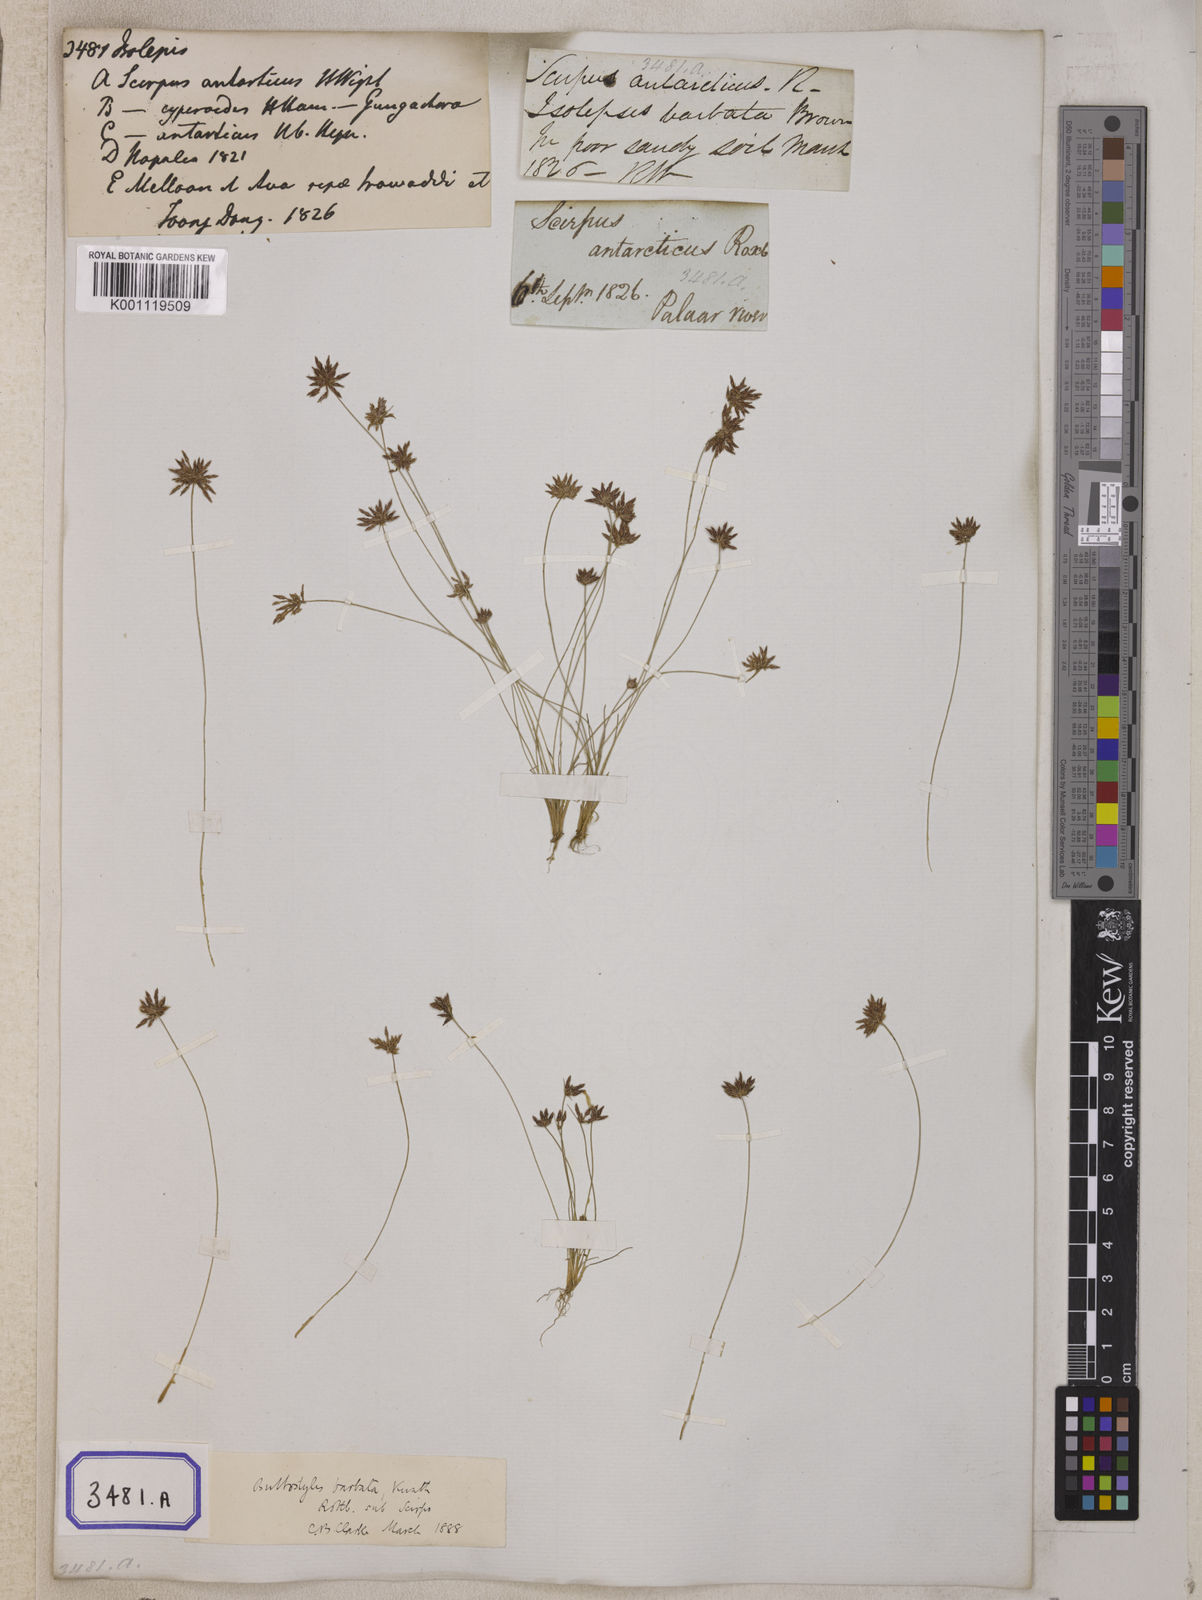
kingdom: Plantae
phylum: Tracheophyta
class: Liliopsida
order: Poales
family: Cyperaceae
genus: Isolepis
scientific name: Isolepis
